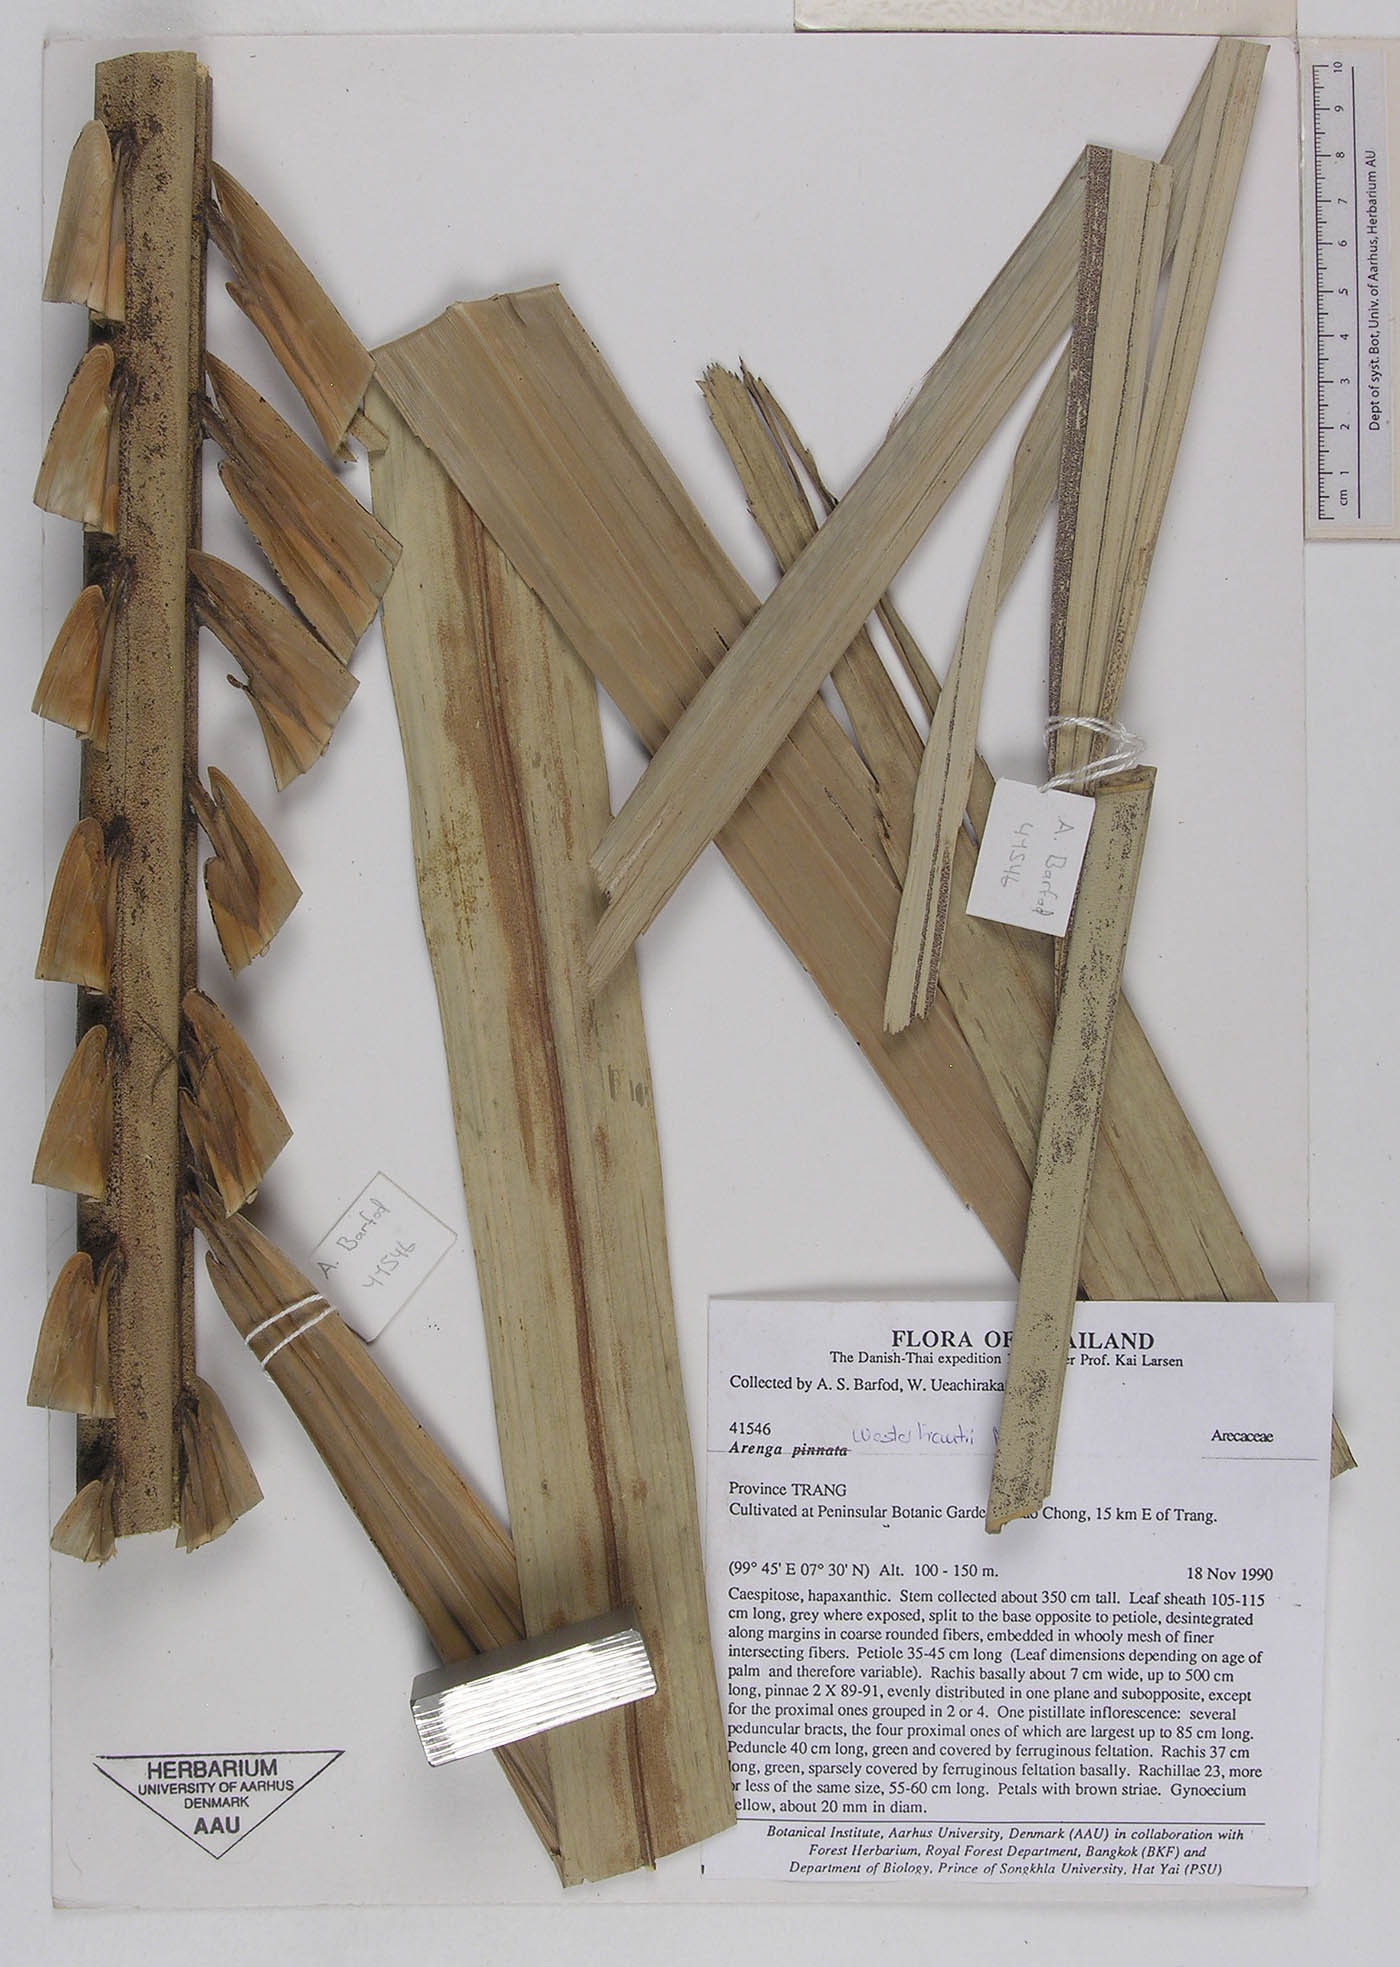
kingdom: Plantae
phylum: Tracheophyta
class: Liliopsida
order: Arecales
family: Arecaceae
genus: Arenga
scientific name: Arenga westerhoutii
